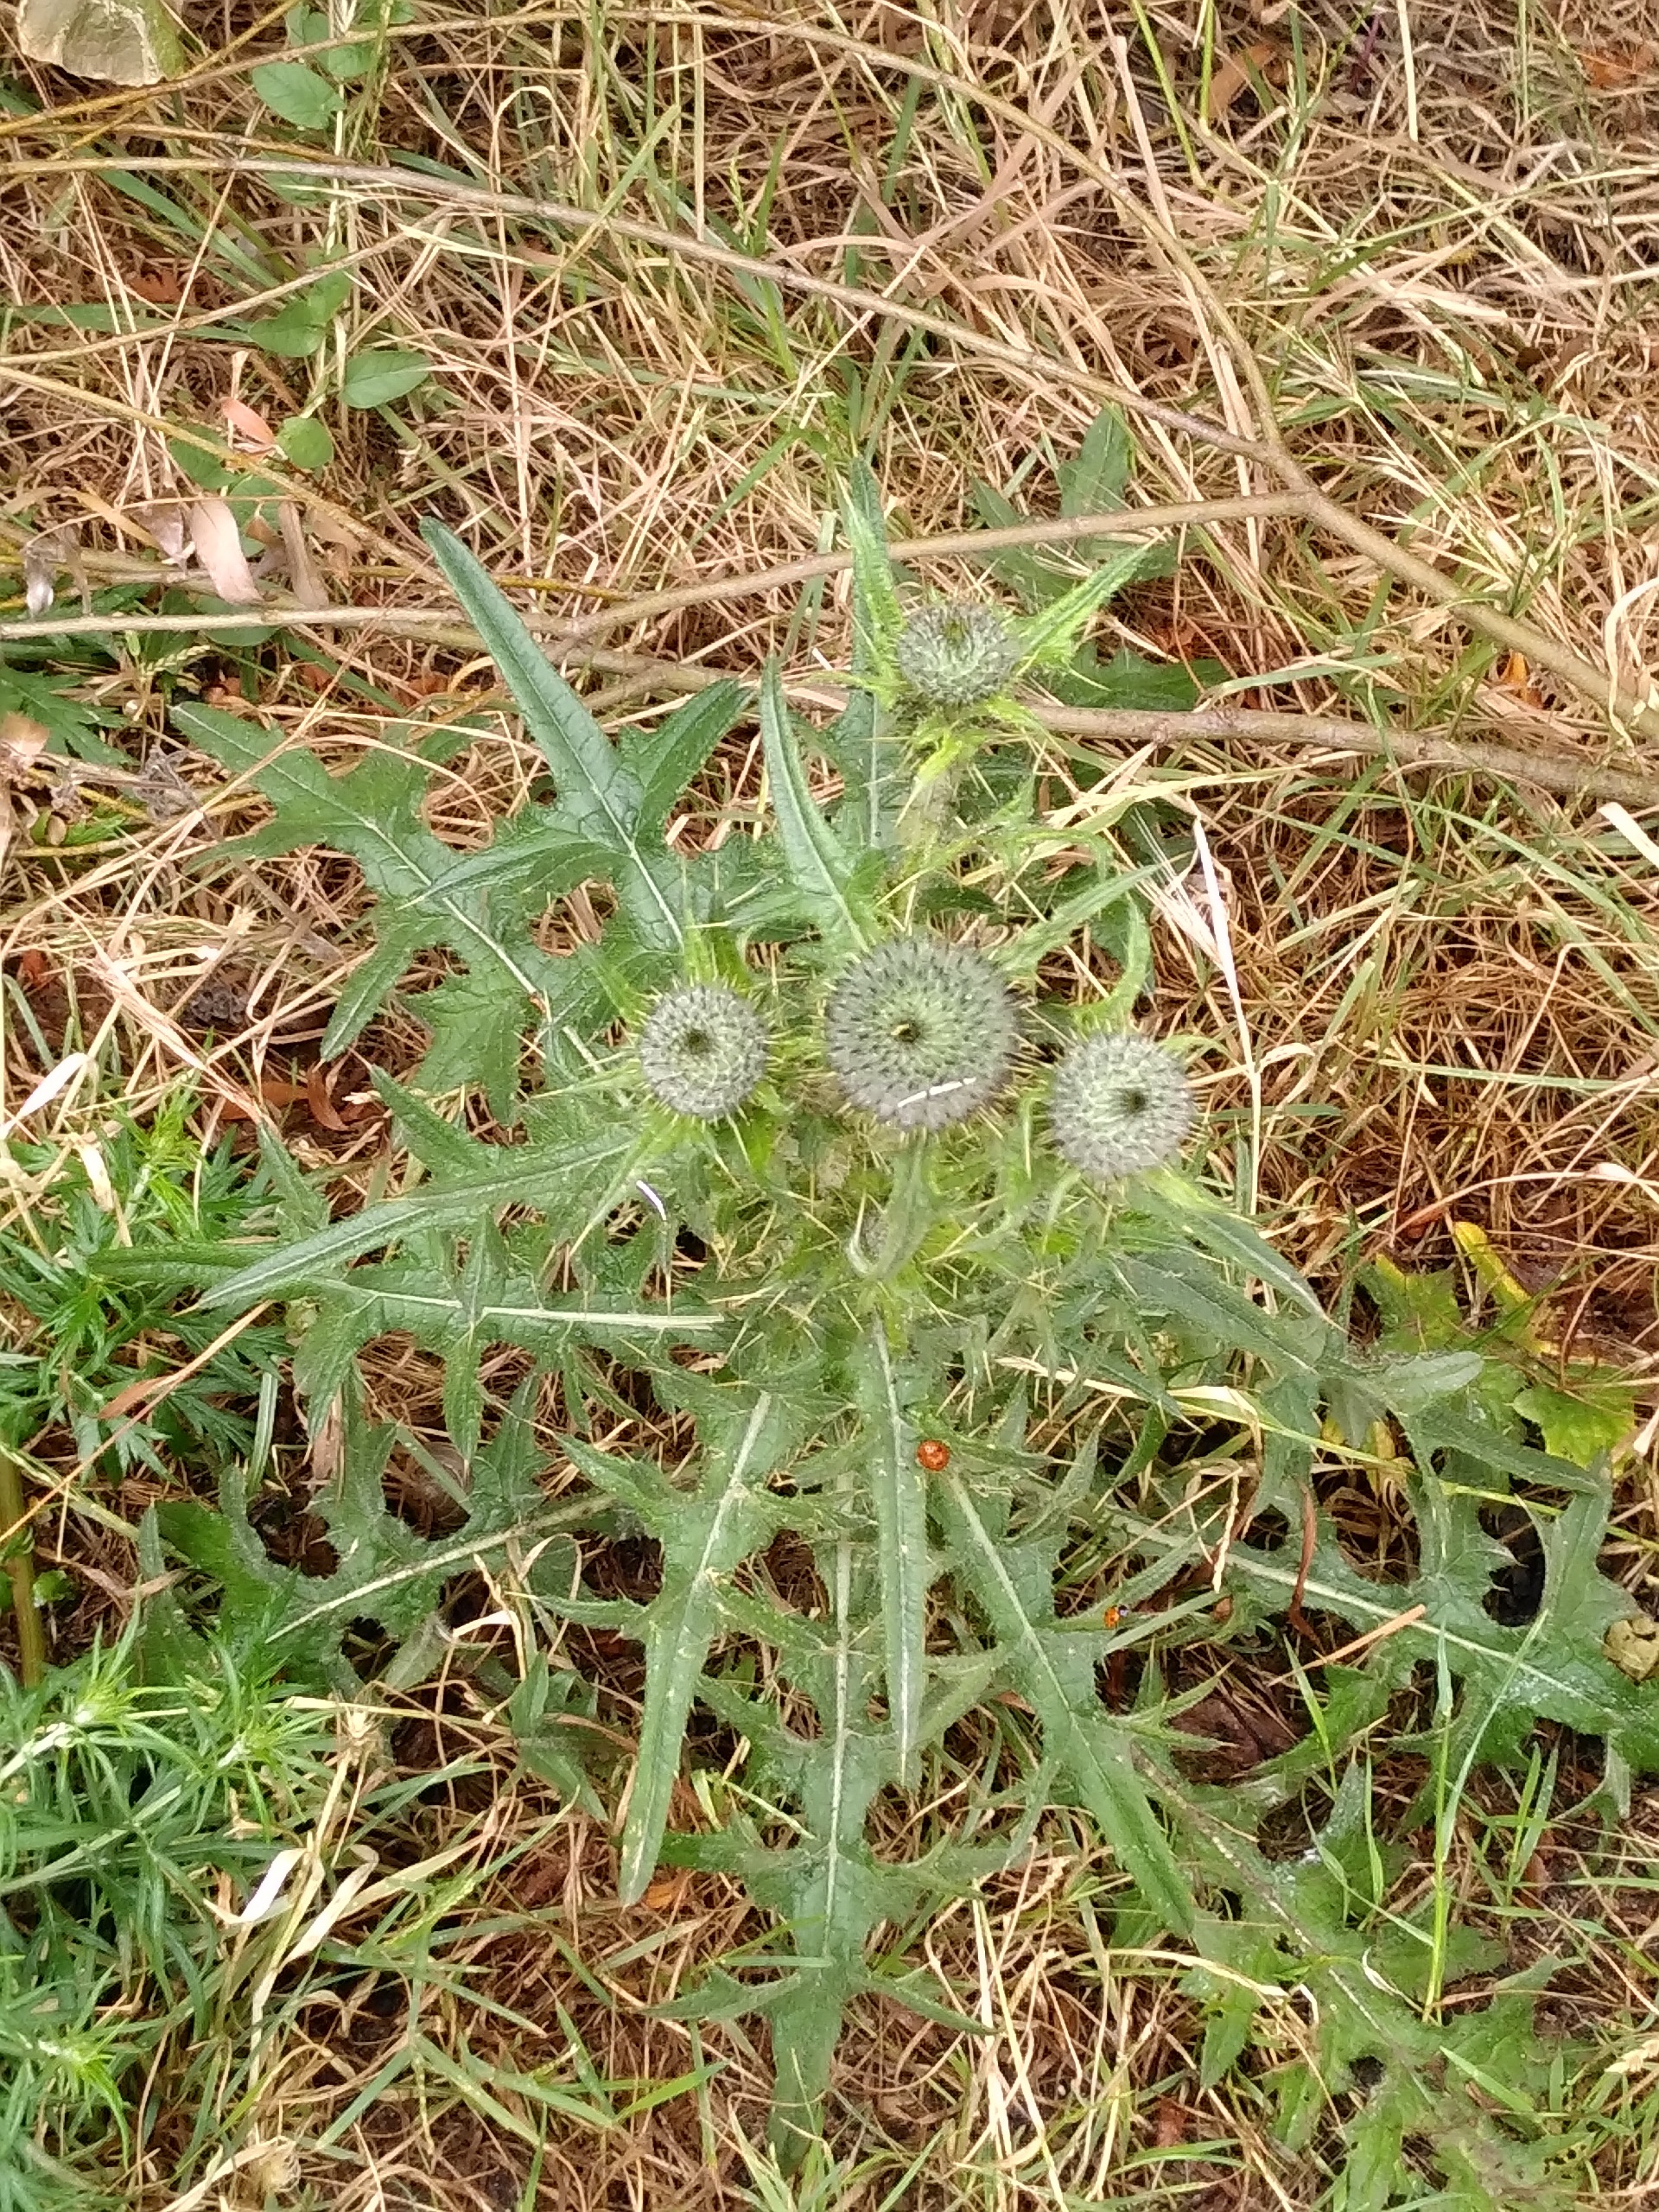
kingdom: Plantae
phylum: Tracheophyta
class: Magnoliopsida
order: Asterales
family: Asteraceae
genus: Cirsium
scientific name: Cirsium vulgare
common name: Horse-tidsel
